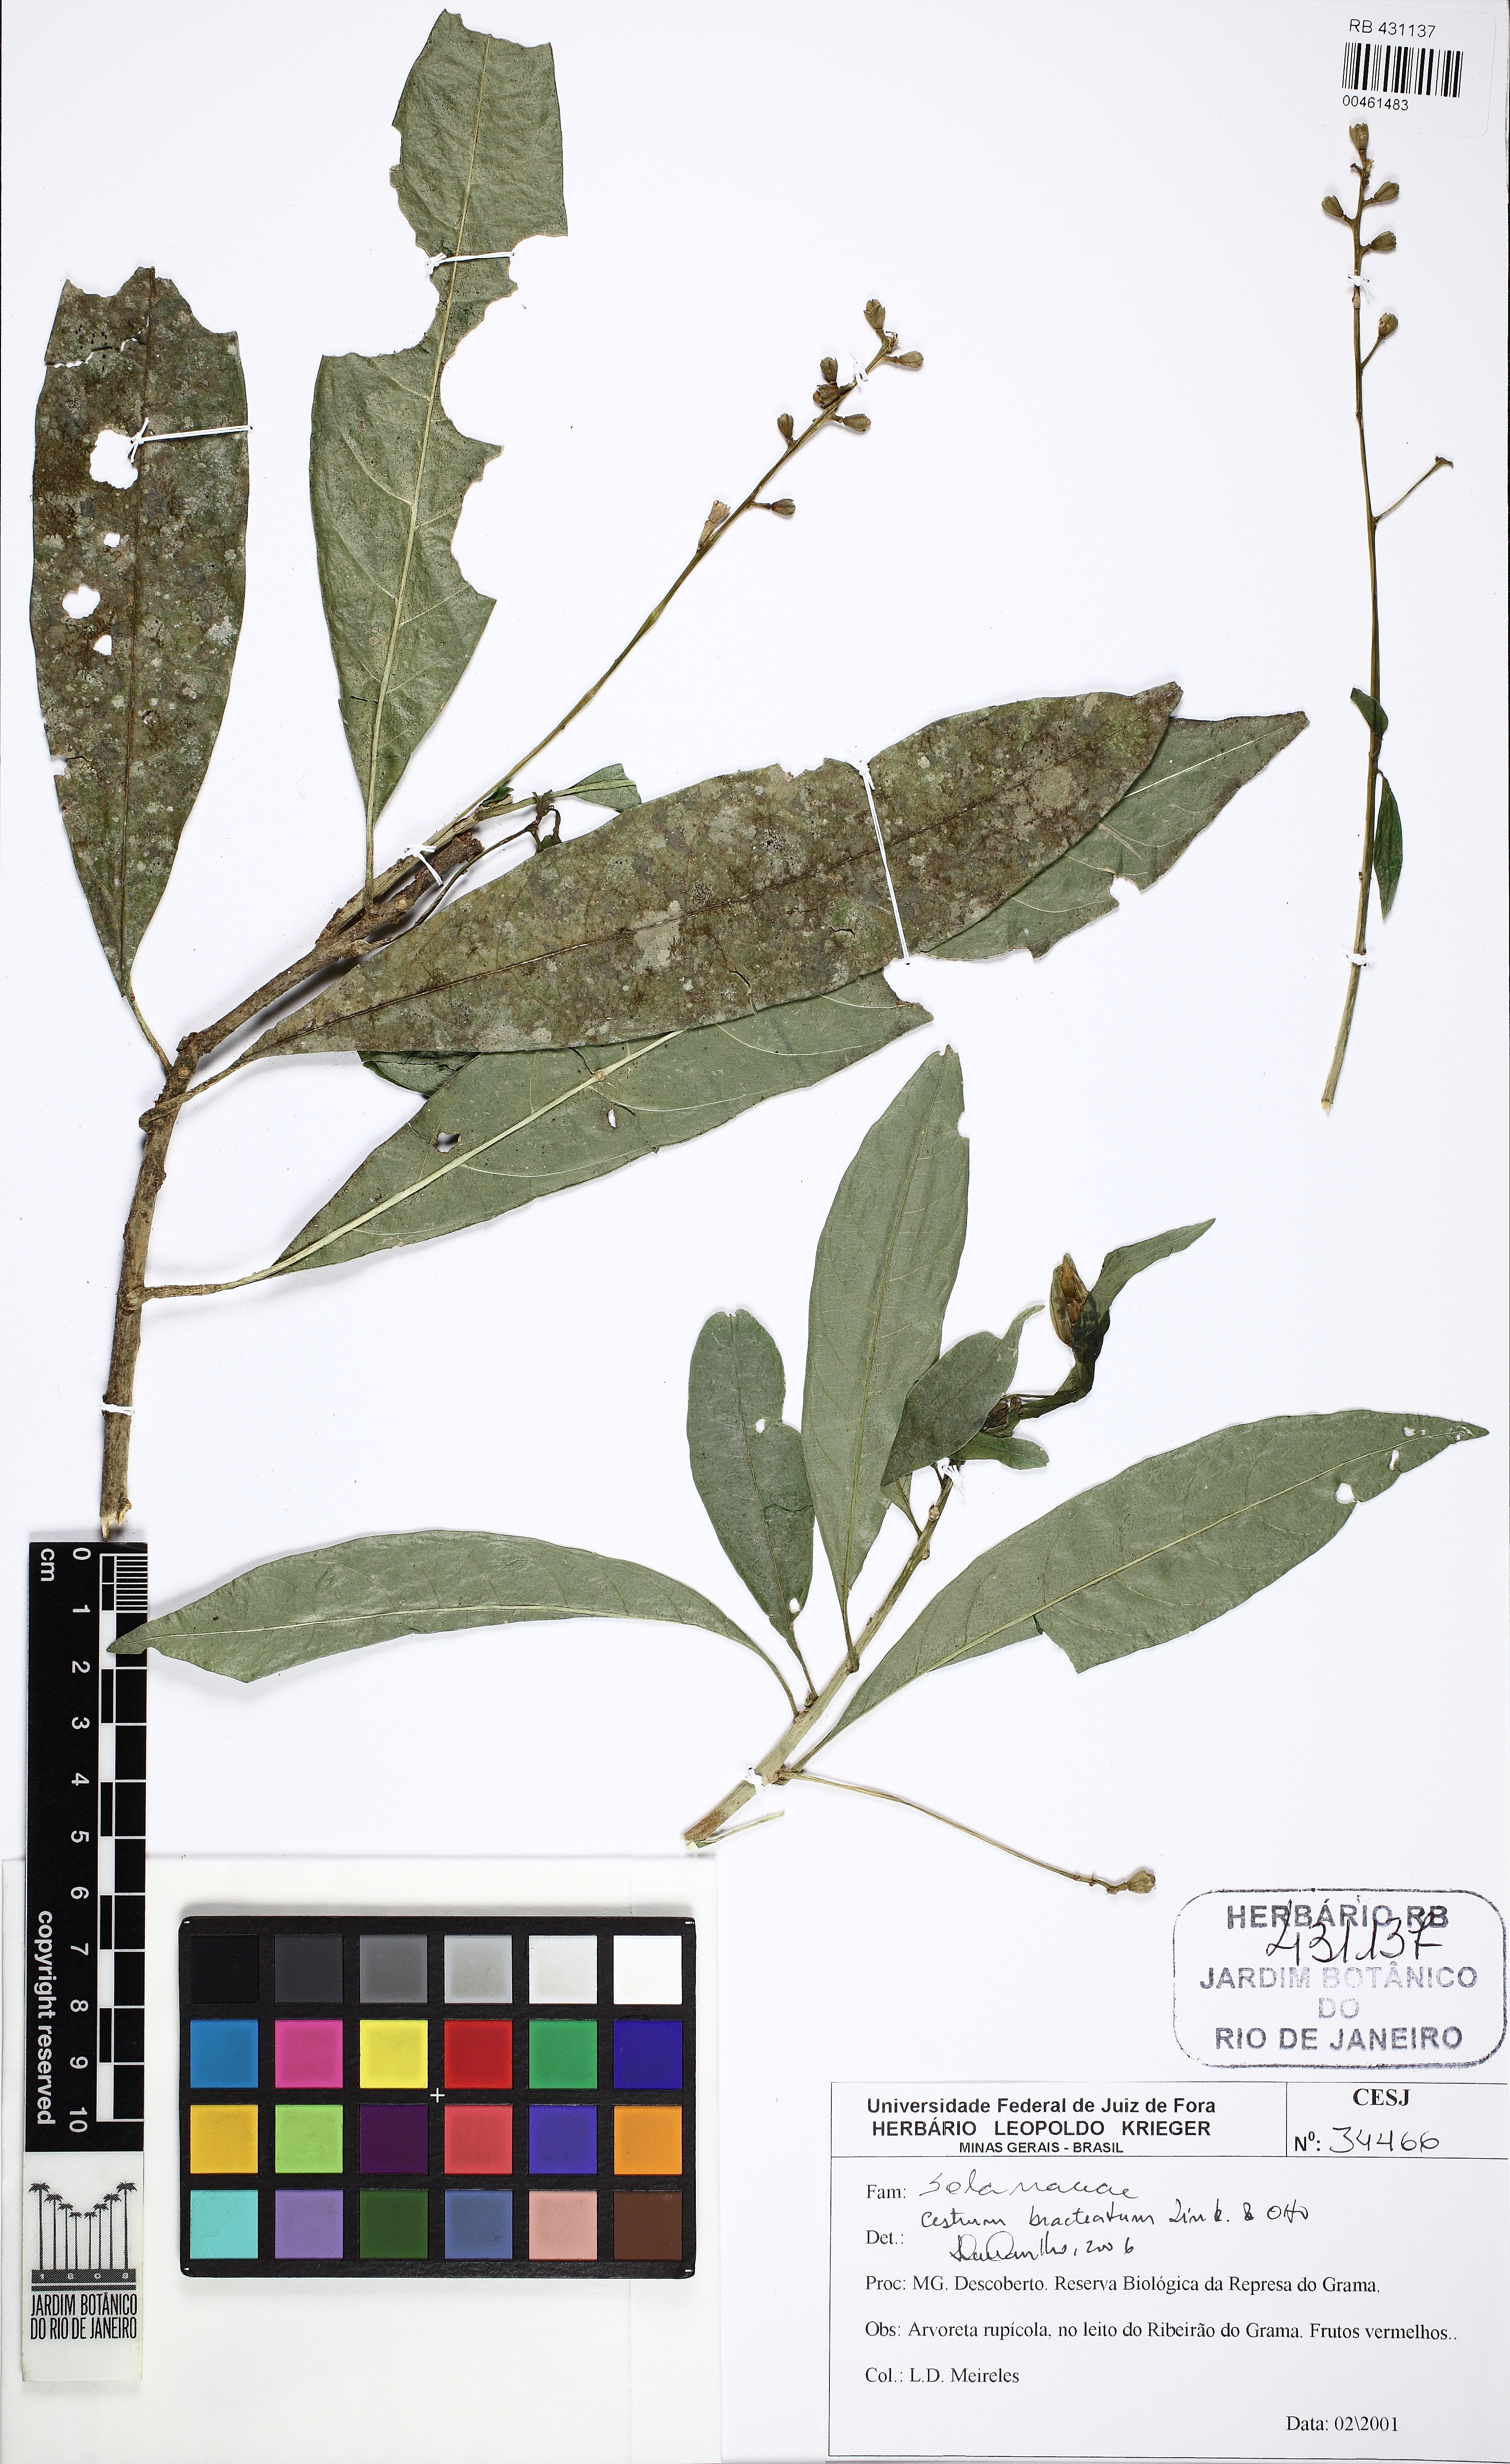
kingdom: Plantae
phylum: Tracheophyta
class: Magnoliopsida
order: Solanales
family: Solanaceae
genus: Cestrum
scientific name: Cestrum bracteatum
